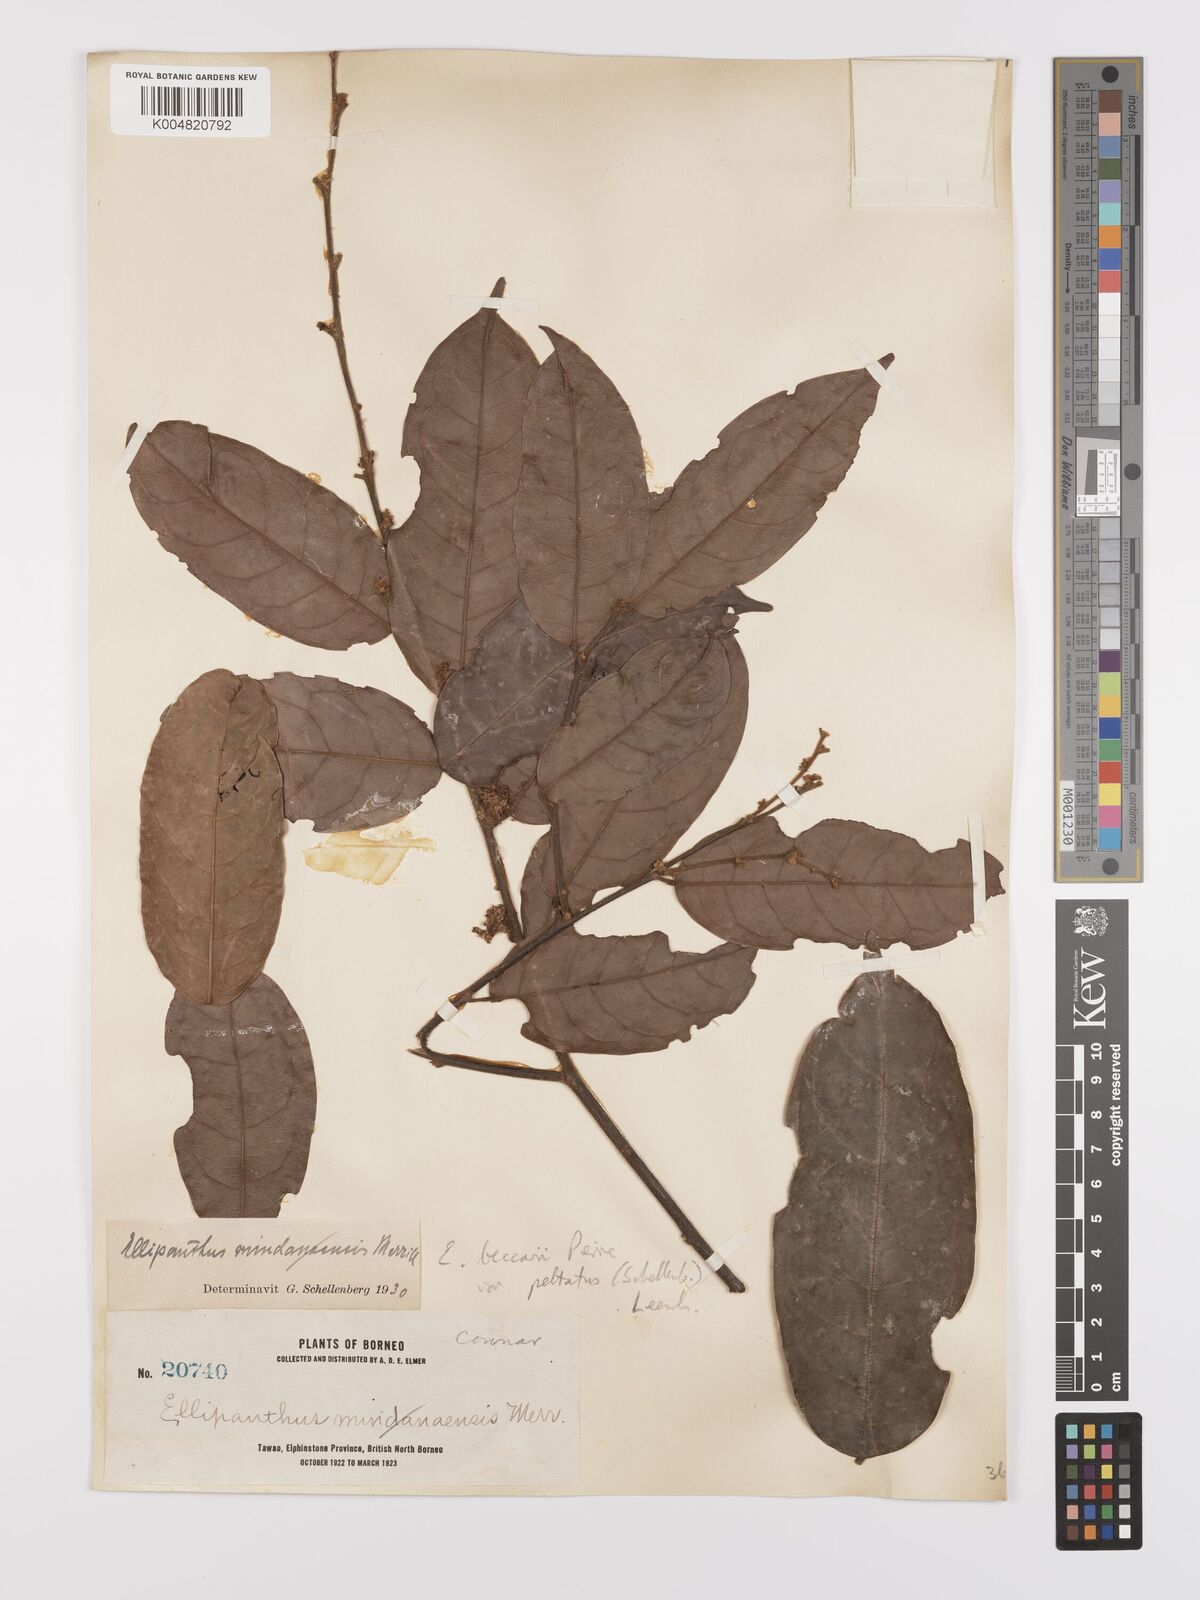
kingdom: Plantae
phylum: Tracheophyta
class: Magnoliopsida
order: Oxalidales
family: Connaraceae
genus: Ellipanthus
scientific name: Ellipanthus beccarii
